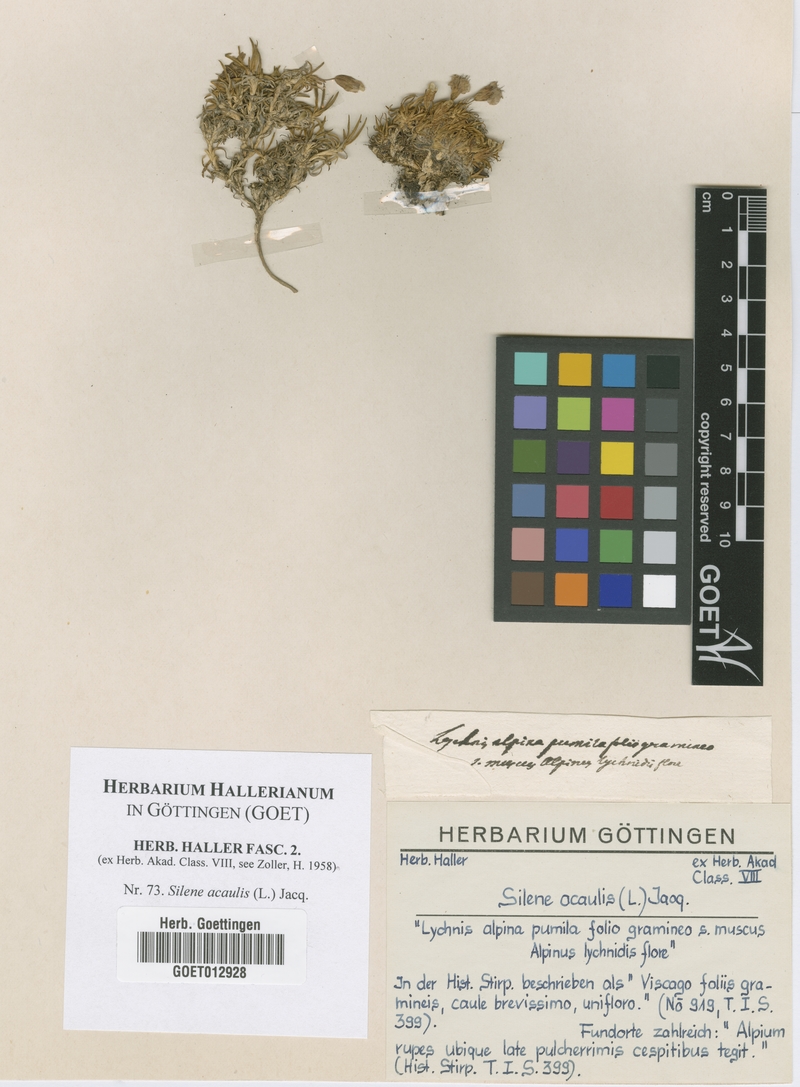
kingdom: Plantae
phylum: Tracheophyta
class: Magnoliopsida
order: Caryophyllales
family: Caryophyllaceae
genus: Silene
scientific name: Silene acaulis
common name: Moss campion
